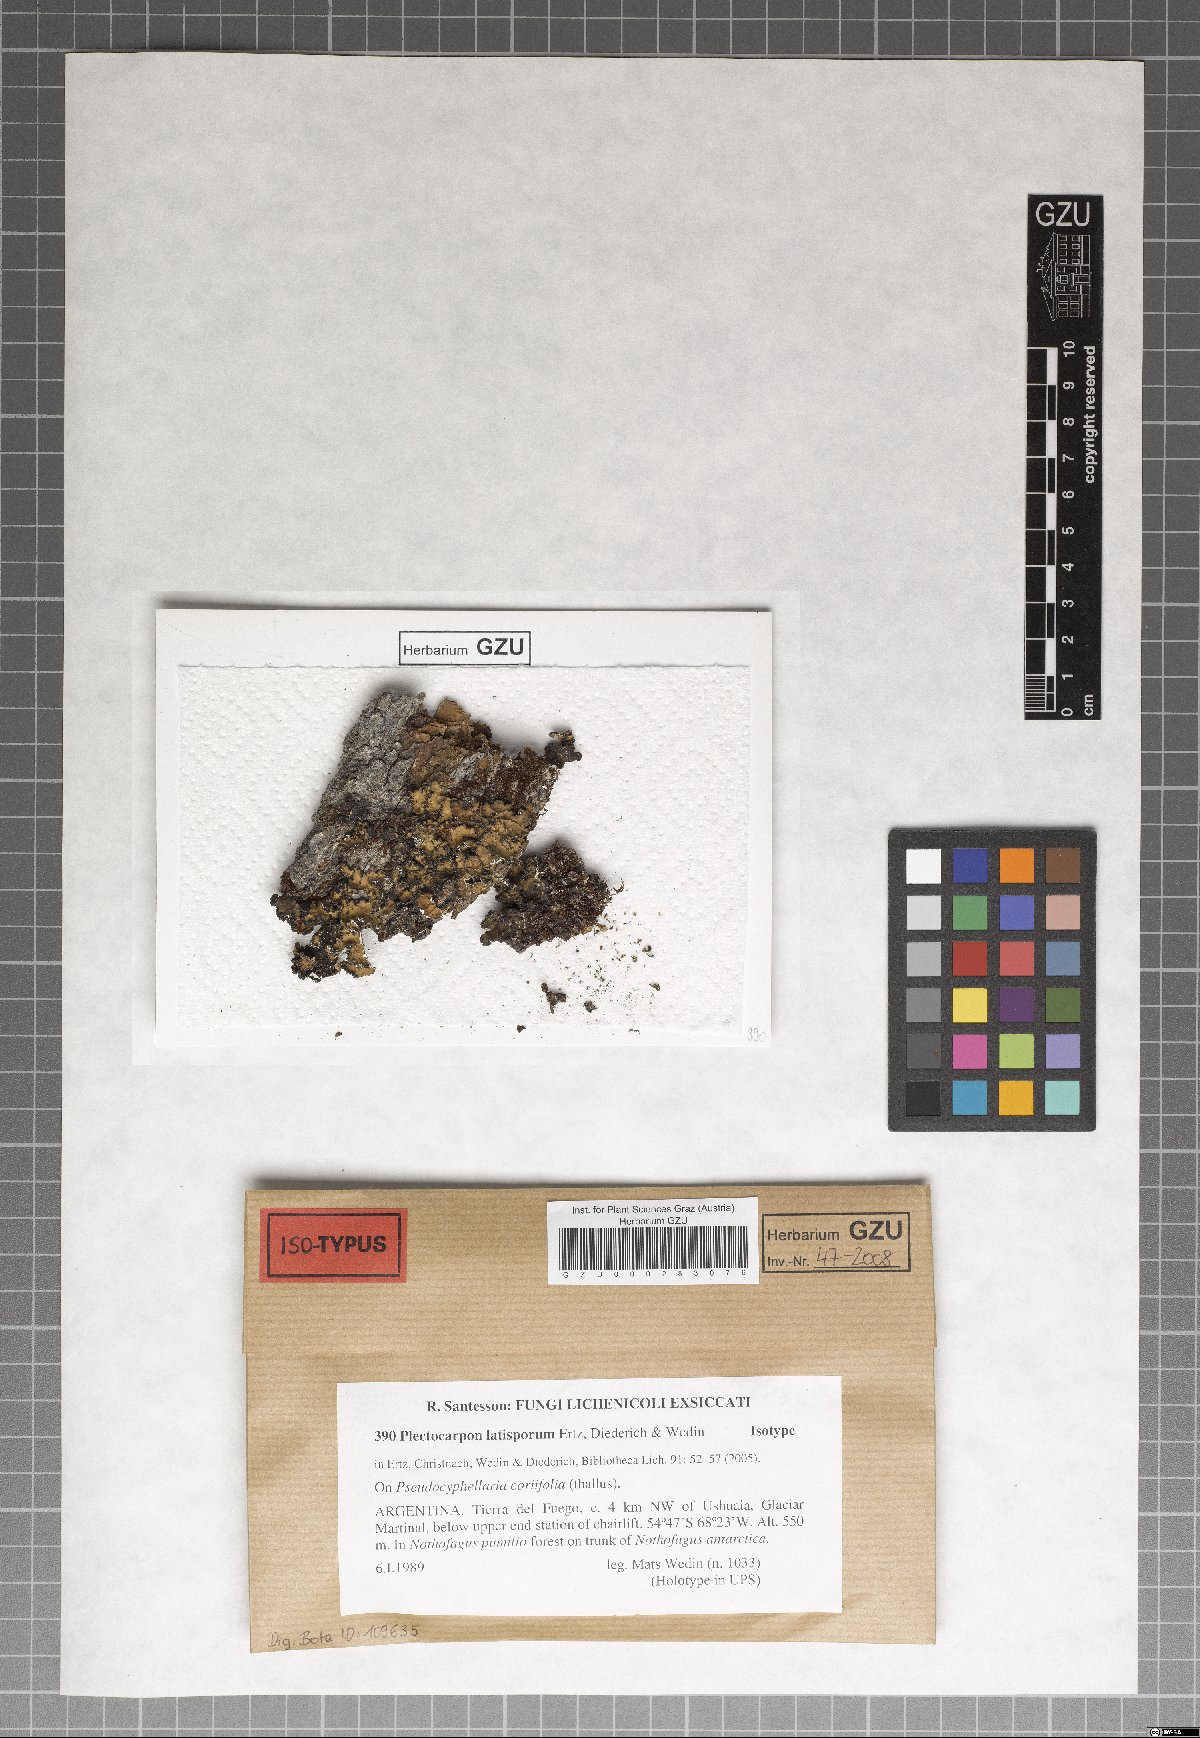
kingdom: Fungi
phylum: Ascomycota
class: Arthoniomycetes
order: Arthoniales
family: Lecanographaceae
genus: Plectocarpon
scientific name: Plectocarpon latisporum
